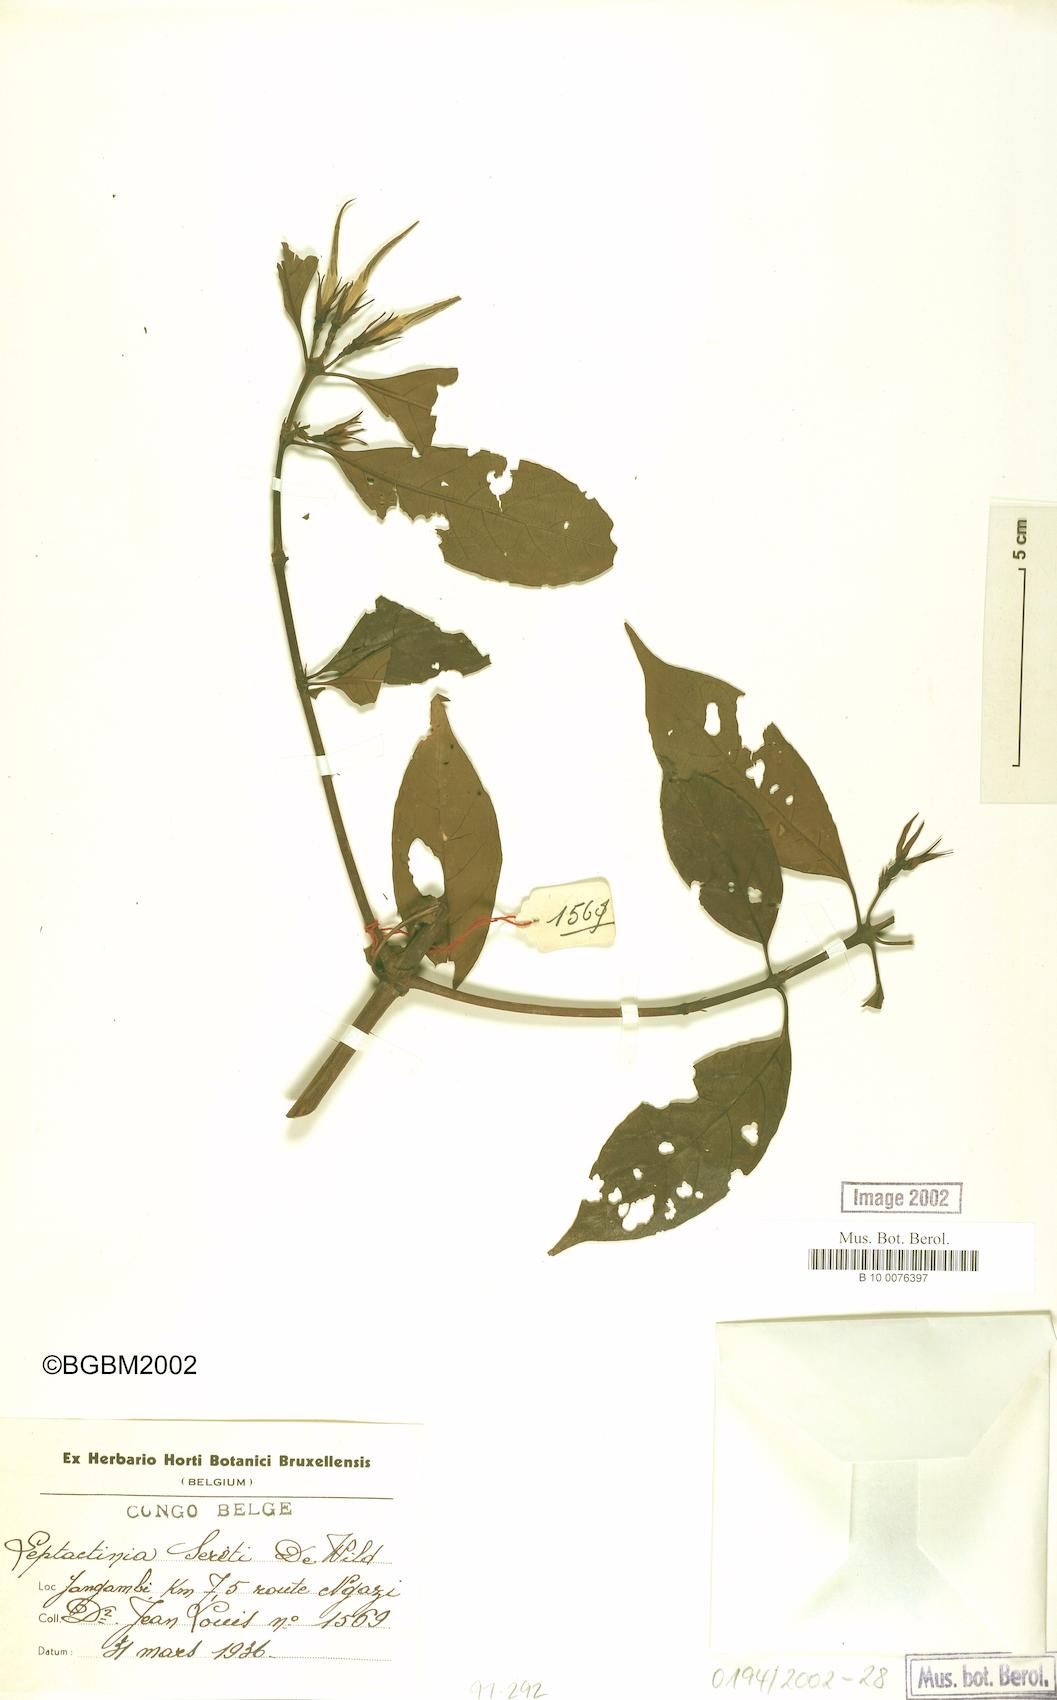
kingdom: Plantae
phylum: Tracheophyta
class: Magnoliopsida
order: Gentianales
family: Rubiaceae
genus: Leptactina
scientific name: Leptactina laurentiana
